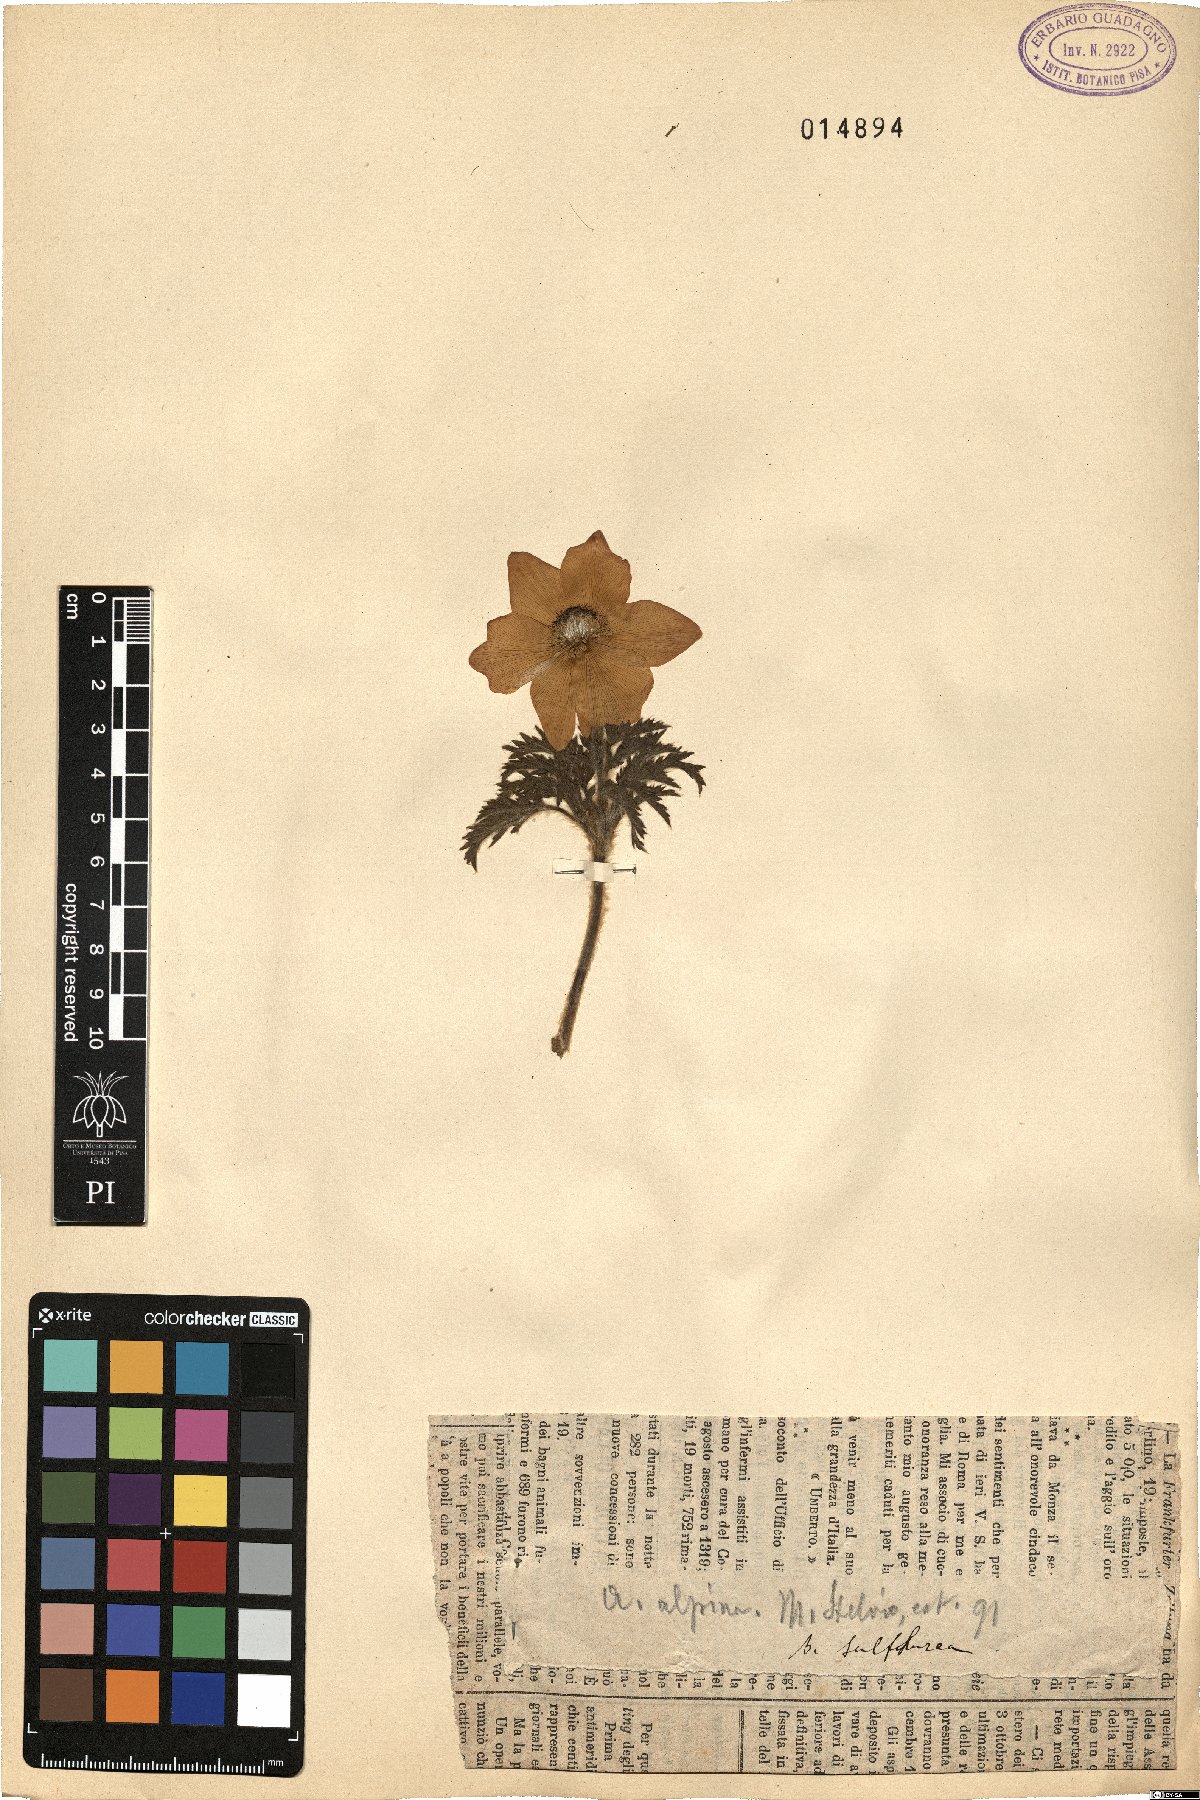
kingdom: Plantae
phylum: Tracheophyta
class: Magnoliopsida
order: Ranunculales
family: Ranunculaceae
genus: Pulsatilla
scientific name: Pulsatilla alpina
